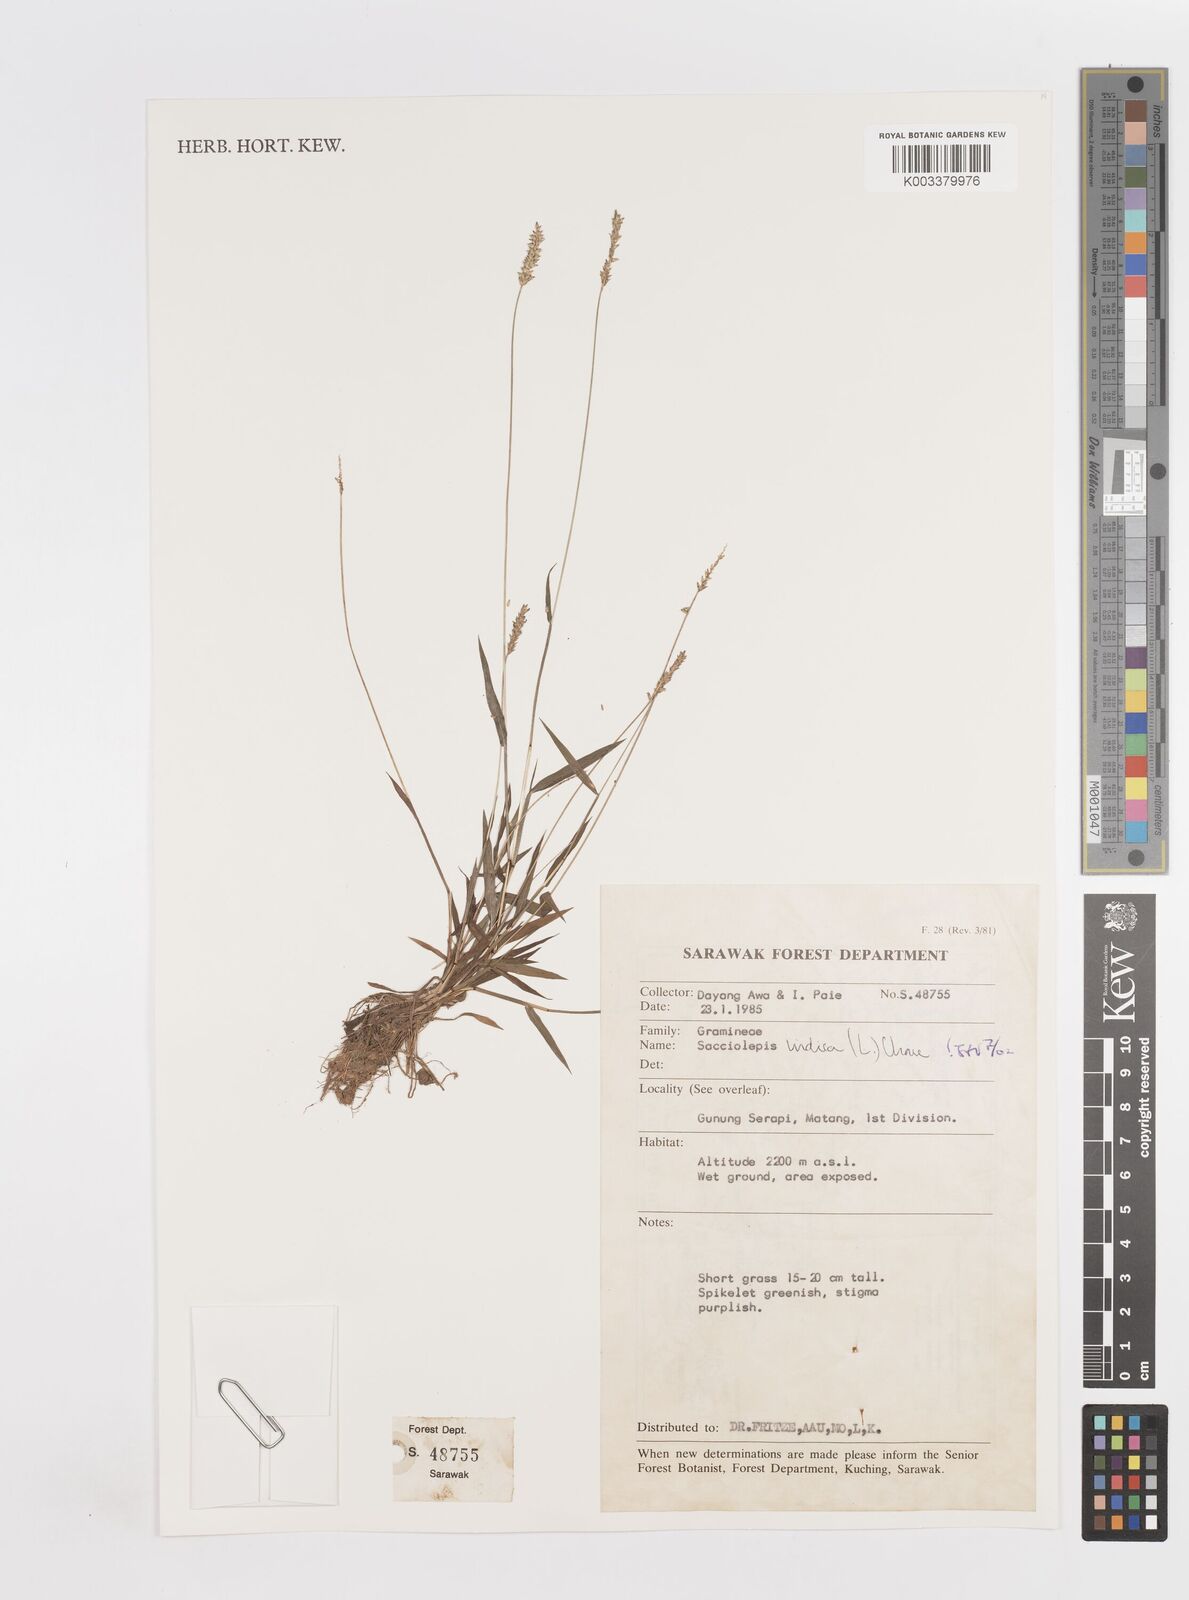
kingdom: Plantae
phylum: Tracheophyta
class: Liliopsida
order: Poales
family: Poaceae
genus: Sacciolepis
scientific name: Sacciolepis indica
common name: Glenwoodgrass
